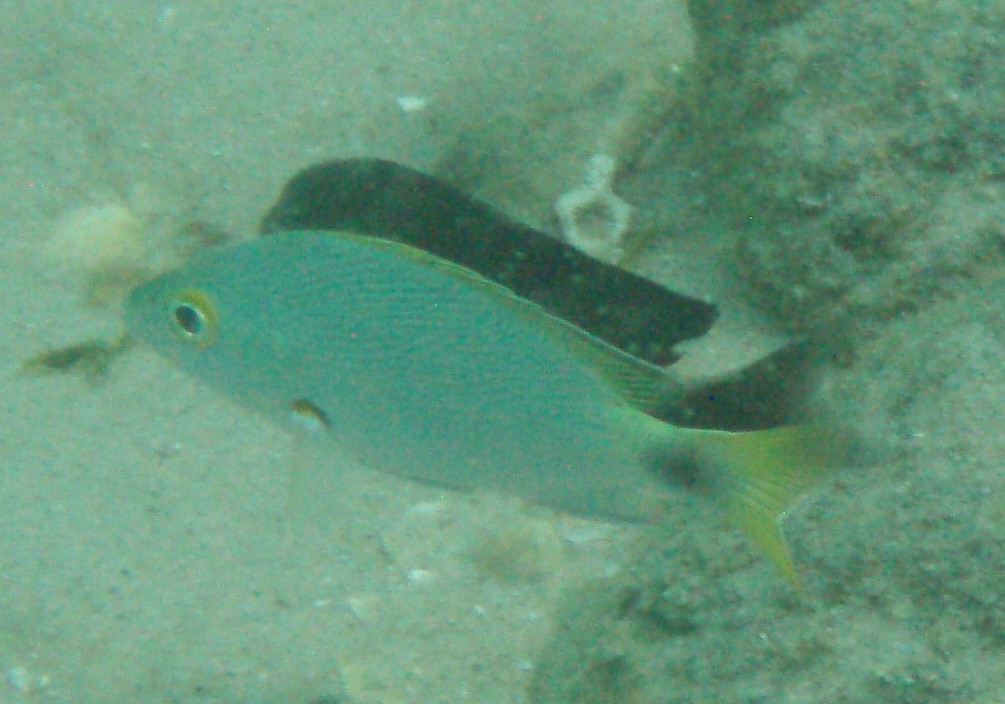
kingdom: Animalia
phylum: Chordata
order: Perciformes
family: Lutjanidae
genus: Lutjanus
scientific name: Lutjanus gibbus
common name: Humpback snapper
